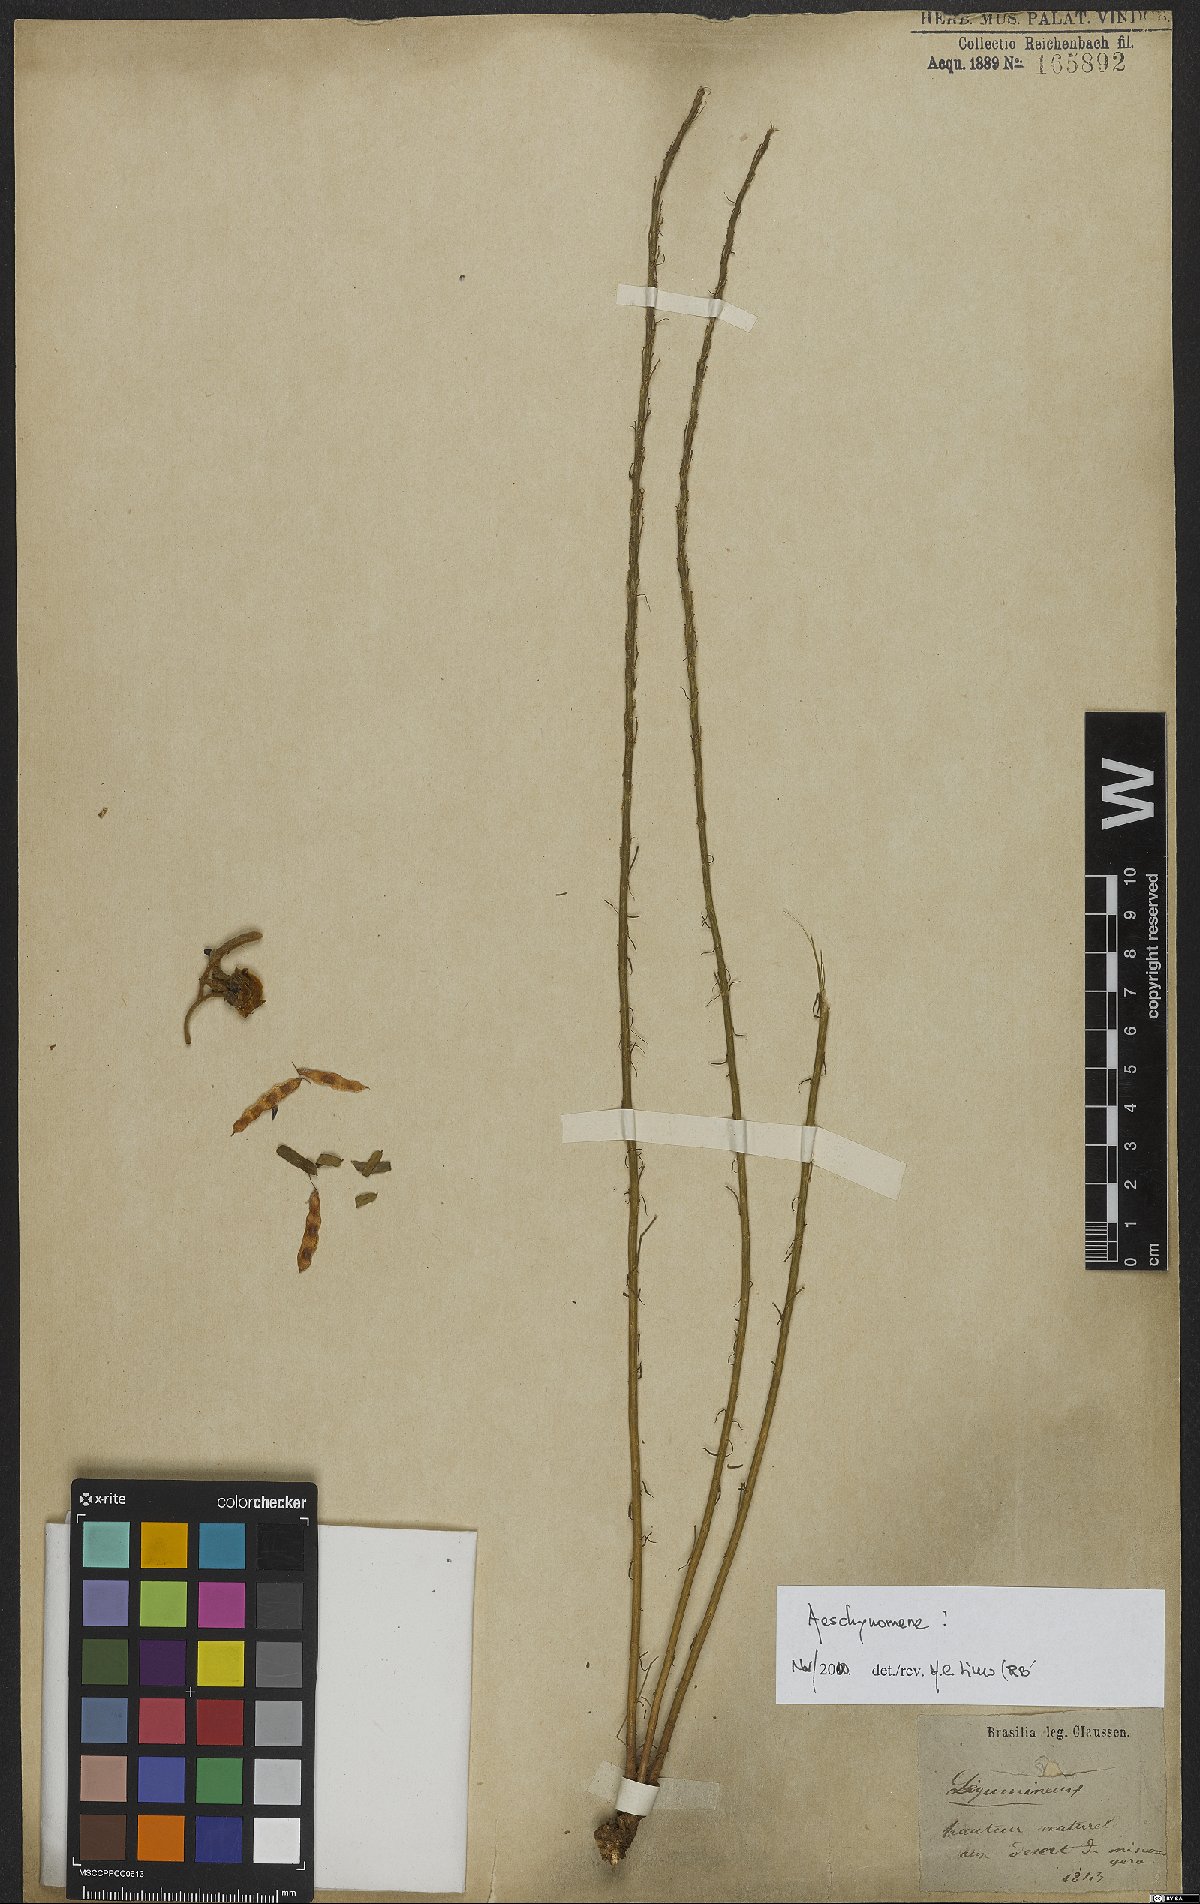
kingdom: Plantae
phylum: Tracheophyta
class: Magnoliopsida
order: Fabales
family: Fabaceae
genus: Aeschynomene
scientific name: Aeschynomene
